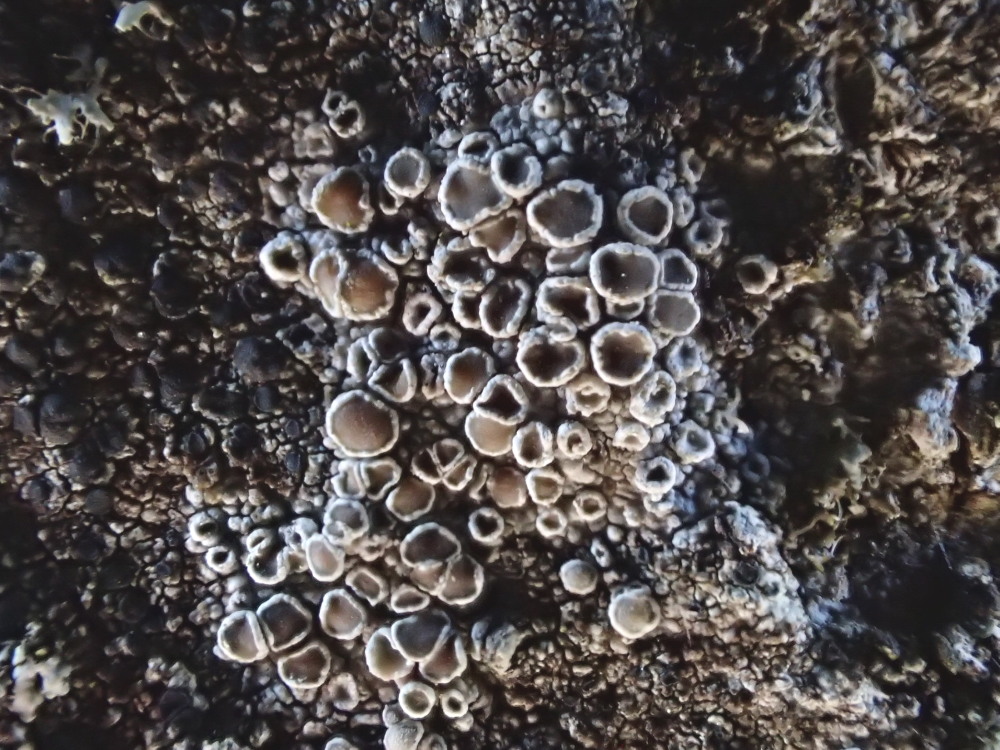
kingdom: Fungi
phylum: Ascomycota
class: Lecanoromycetes
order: Lecanorales
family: Lecanoraceae
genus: Lecanora
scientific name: Lecanora chlarotera
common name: brun kantskivelav
